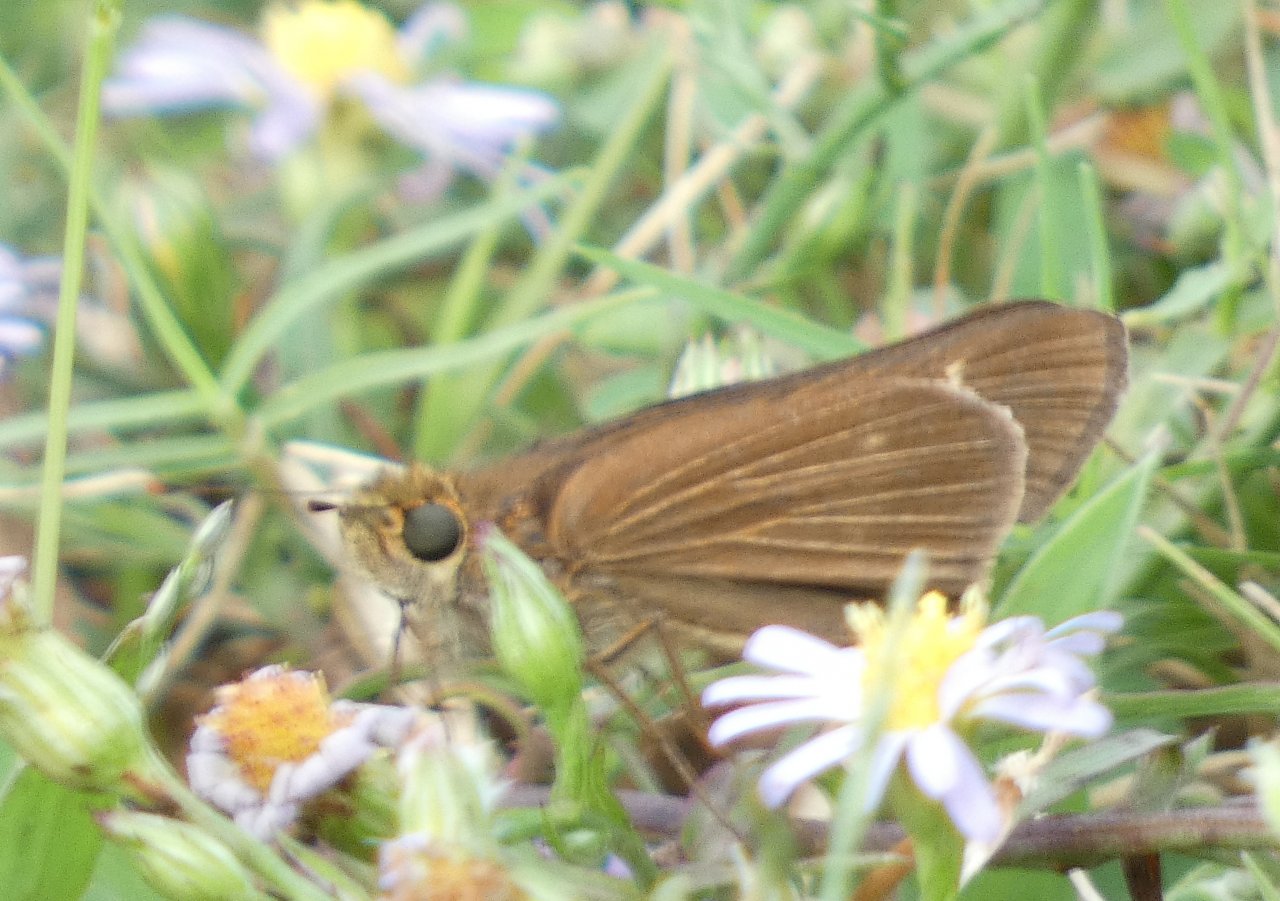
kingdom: Animalia
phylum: Arthropoda
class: Insecta
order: Lepidoptera
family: Hesperiidae
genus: Panoquina
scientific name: Panoquina ocola
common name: Ocola Skipper
